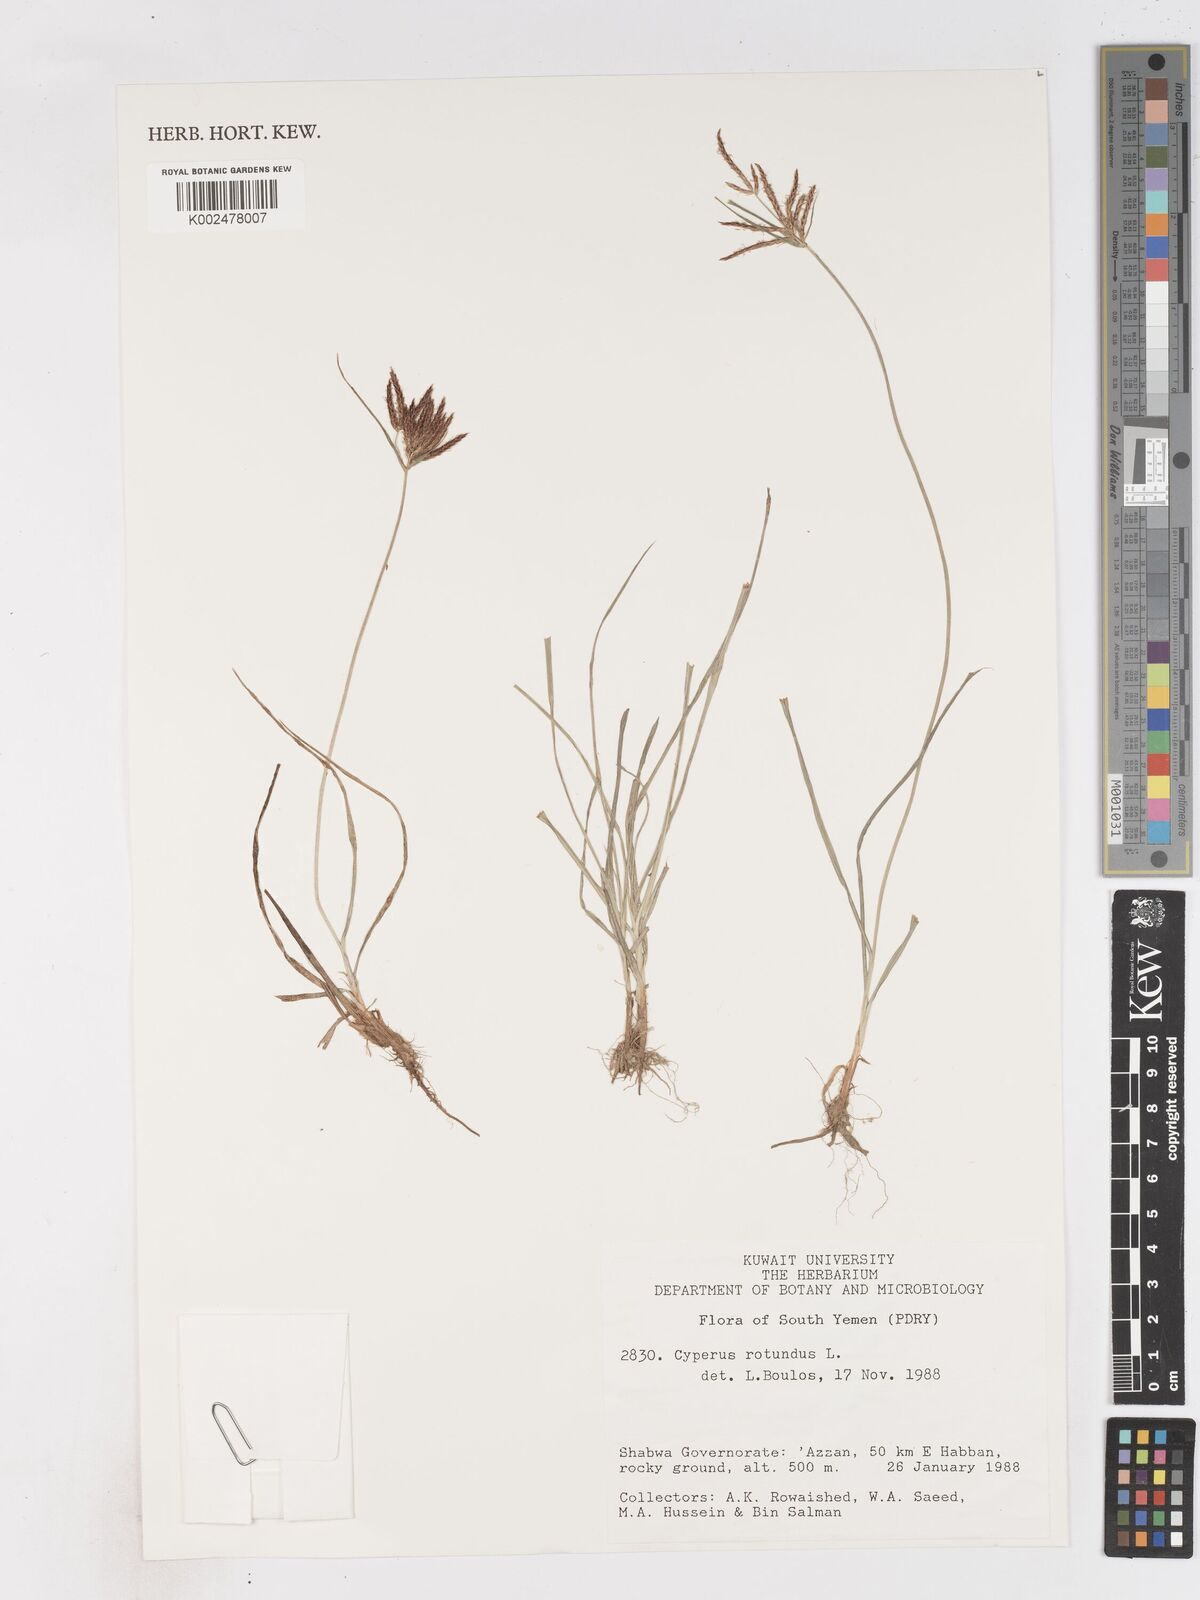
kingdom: Plantae
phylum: Tracheophyta
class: Liliopsida
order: Poales
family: Cyperaceae
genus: Cyperus
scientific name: Cyperus rotundus
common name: Nutgrass
